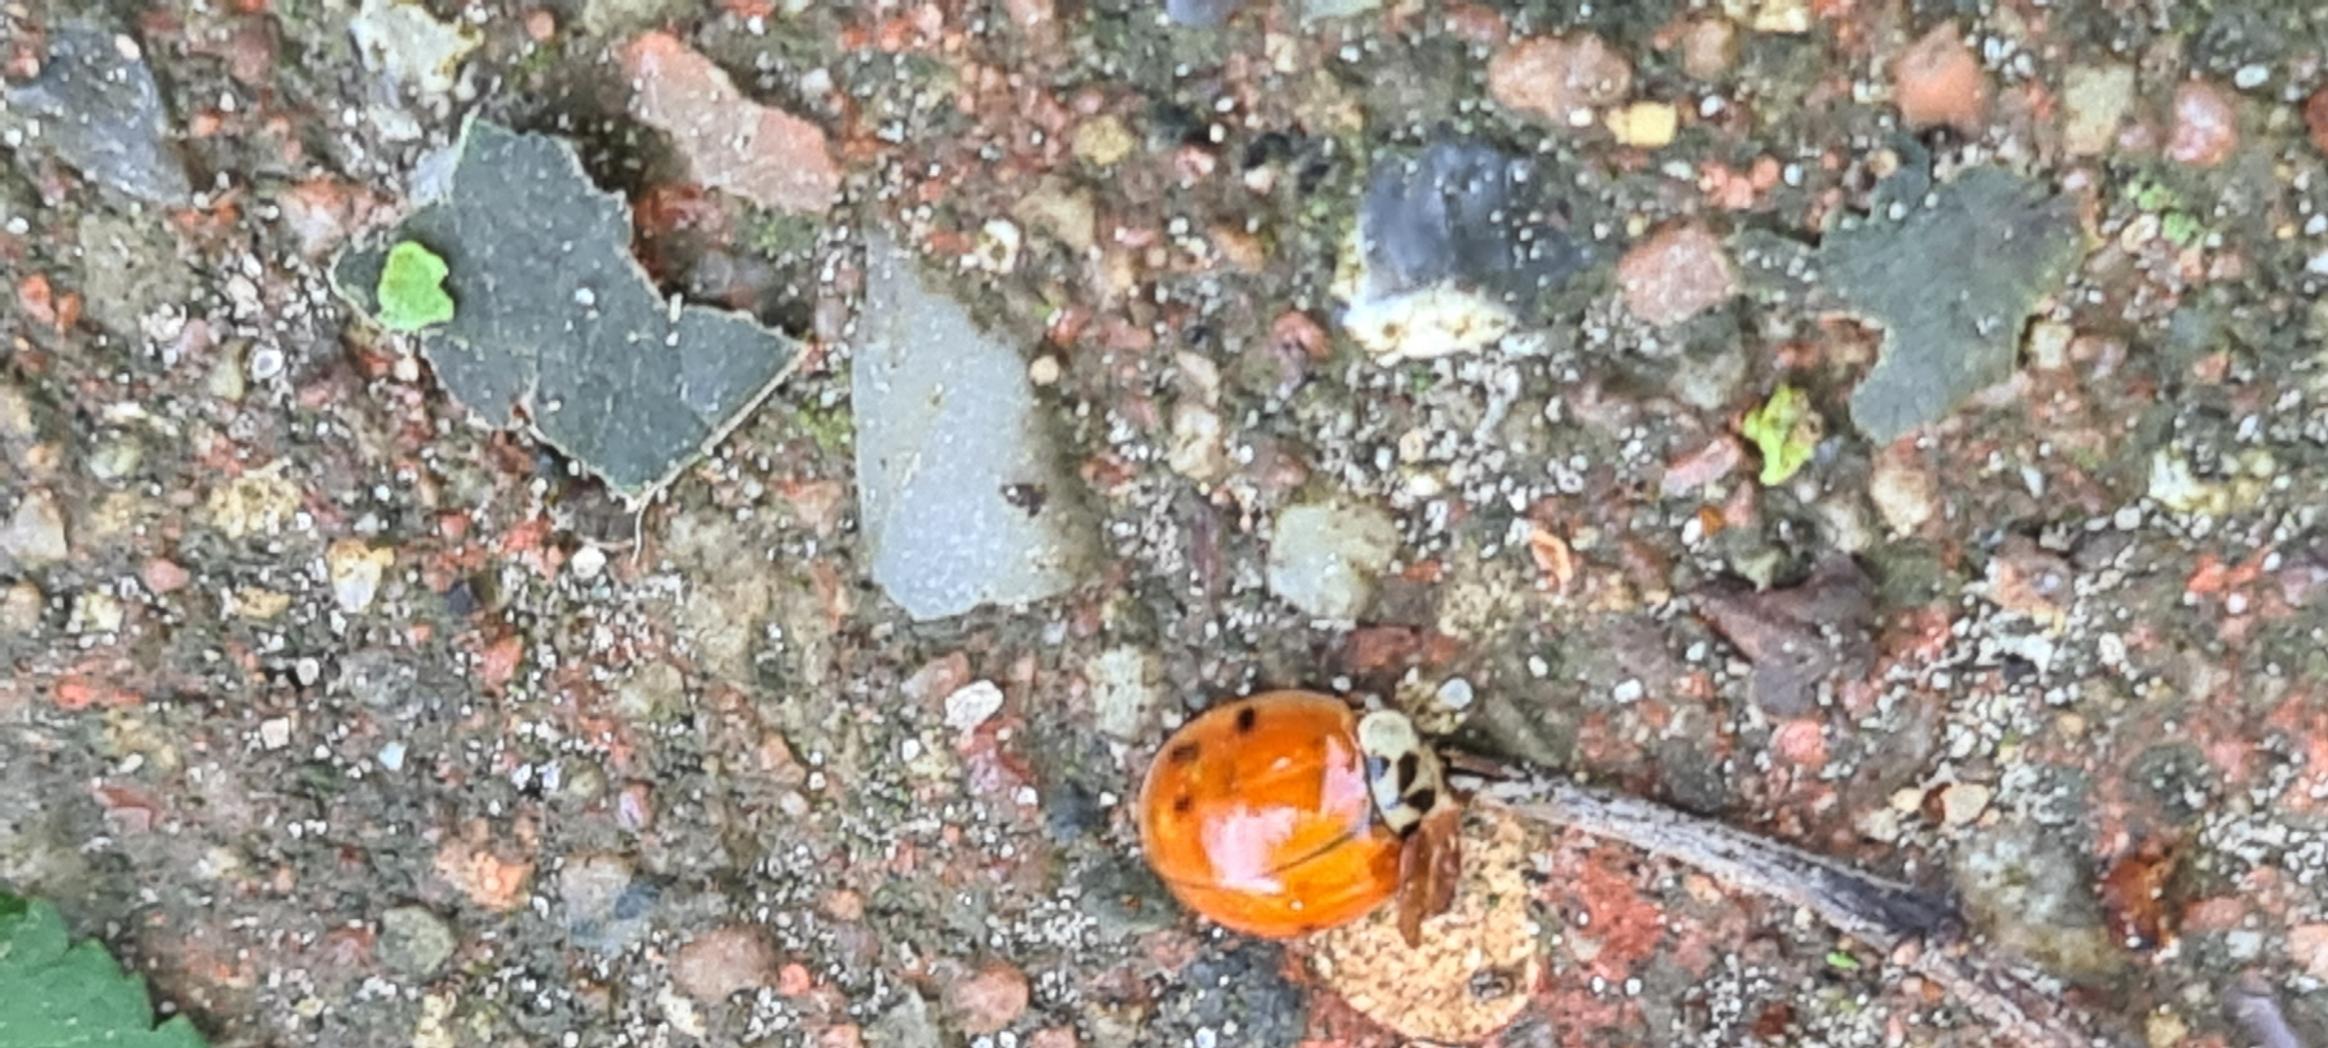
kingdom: Animalia
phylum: Arthropoda
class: Insecta
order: Coleoptera
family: Coccinellidae
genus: Harmonia
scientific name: Harmonia axyridis
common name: Harlekinmariehøne
